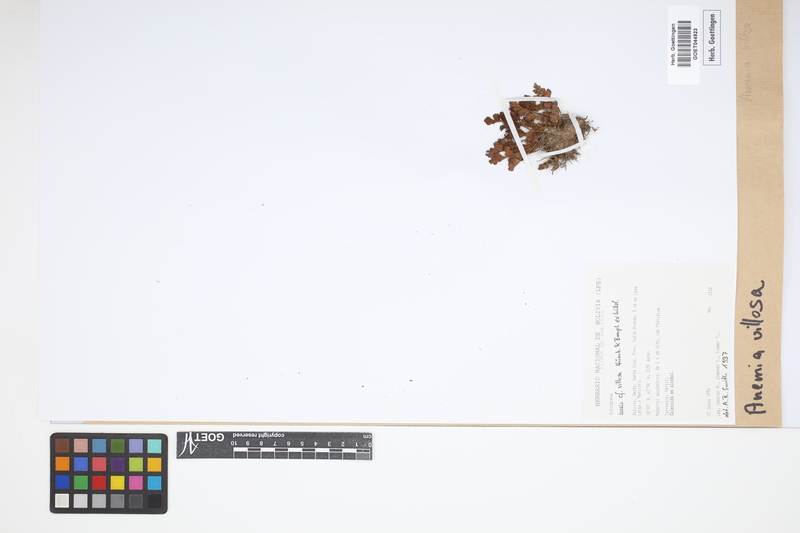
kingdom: Plantae
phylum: Tracheophyta
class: Polypodiopsida
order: Schizaeales
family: Anemiaceae
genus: Anemia
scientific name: Anemia villosa
